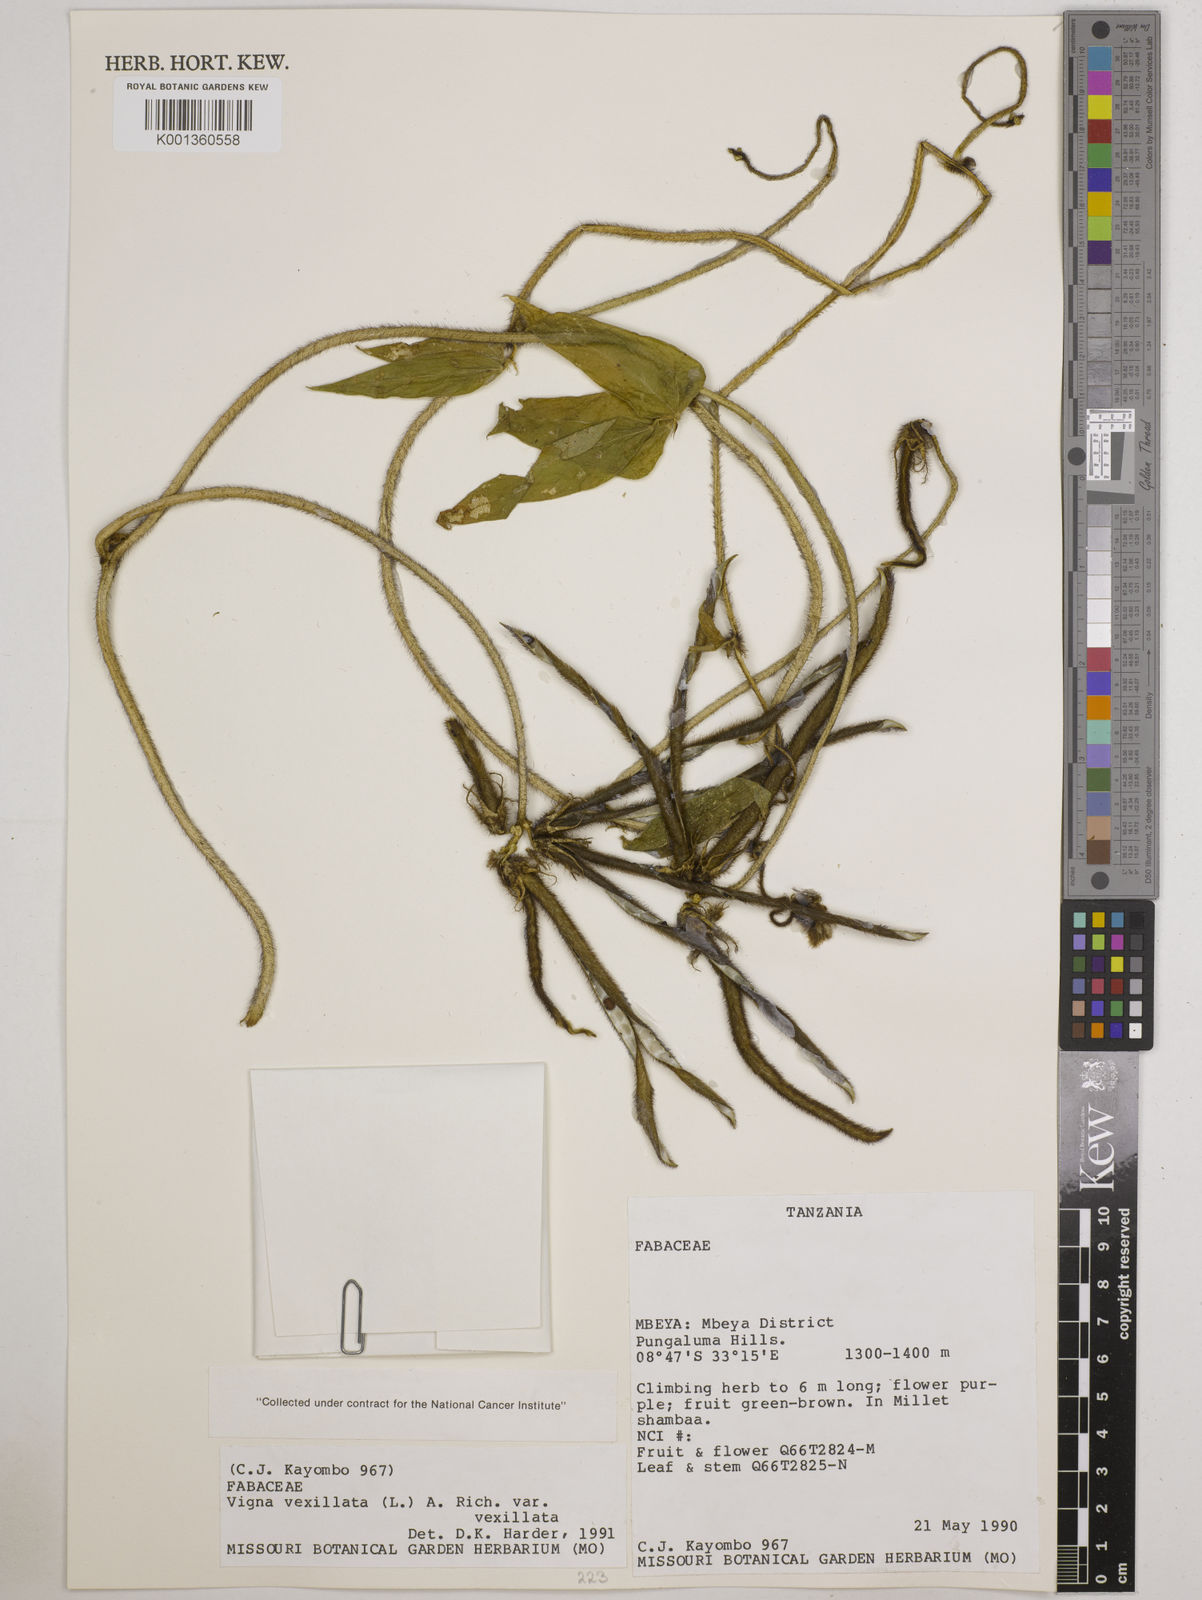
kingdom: Plantae
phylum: Tracheophyta
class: Magnoliopsida
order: Fabales
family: Fabaceae
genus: Vigna
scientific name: Vigna vexillata
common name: Zombi pea
